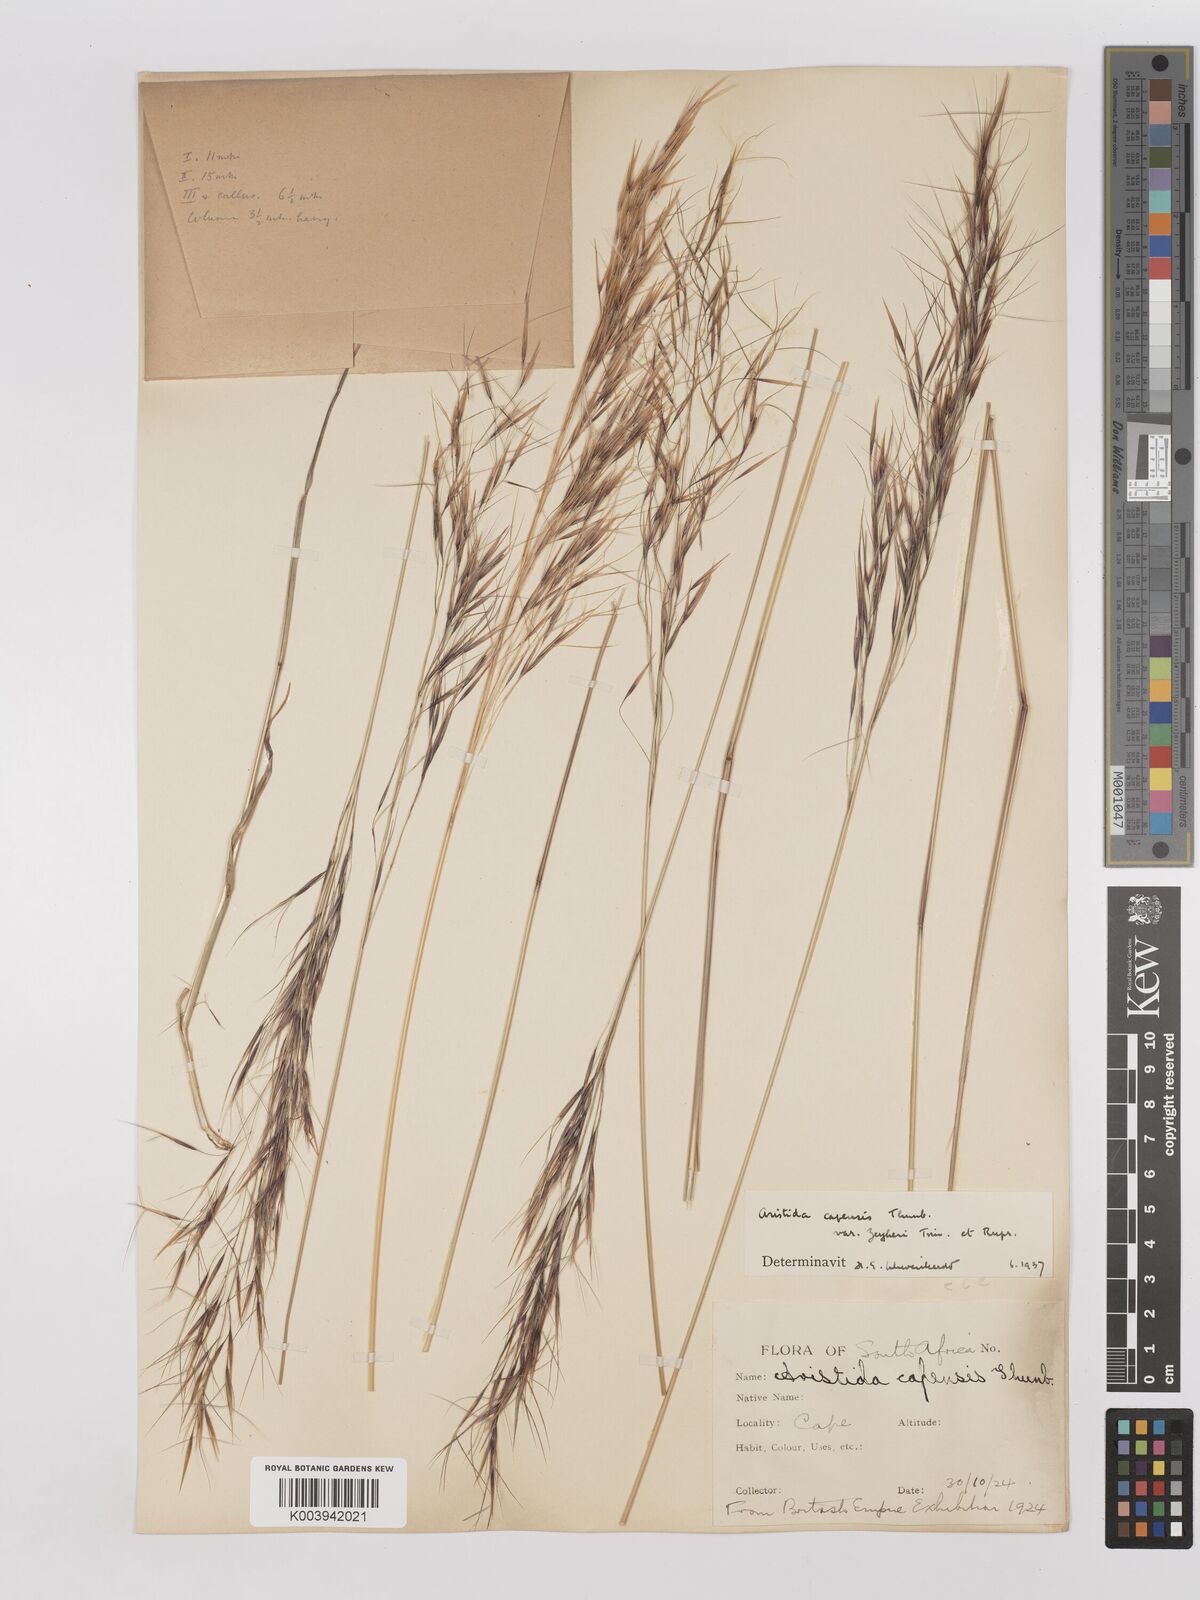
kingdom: Plantae
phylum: Tracheophyta
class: Liliopsida
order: Poales
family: Poaceae
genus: Stipagrostis
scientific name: Stipagrostis zeyheri
